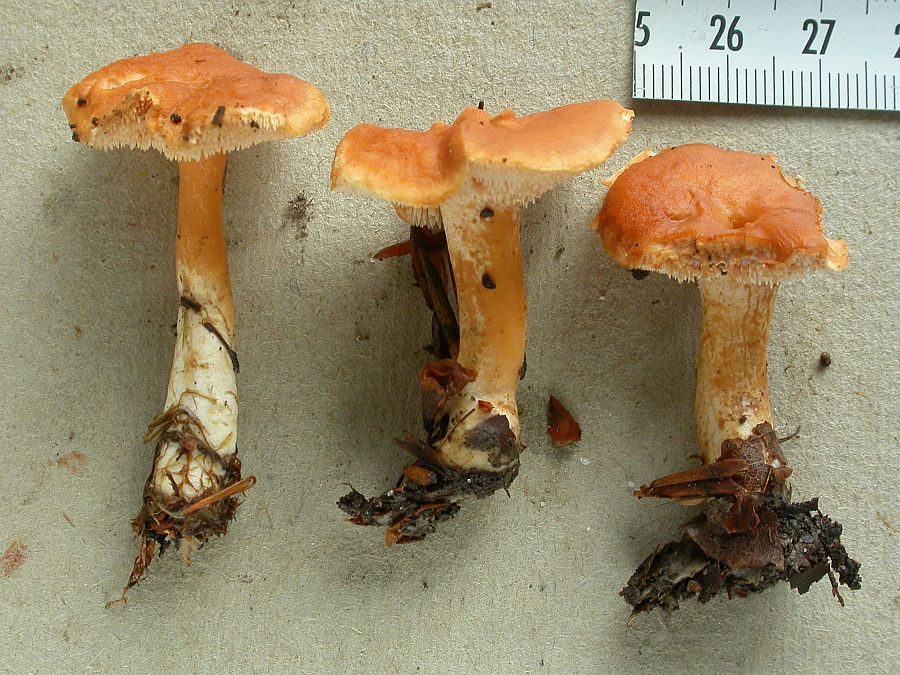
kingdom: Fungi
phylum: Basidiomycota
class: Agaricomycetes
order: Cantharellales
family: Hydnaceae
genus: Hydnum
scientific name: Hydnum umbilicatum
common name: navle-pigsvamp
